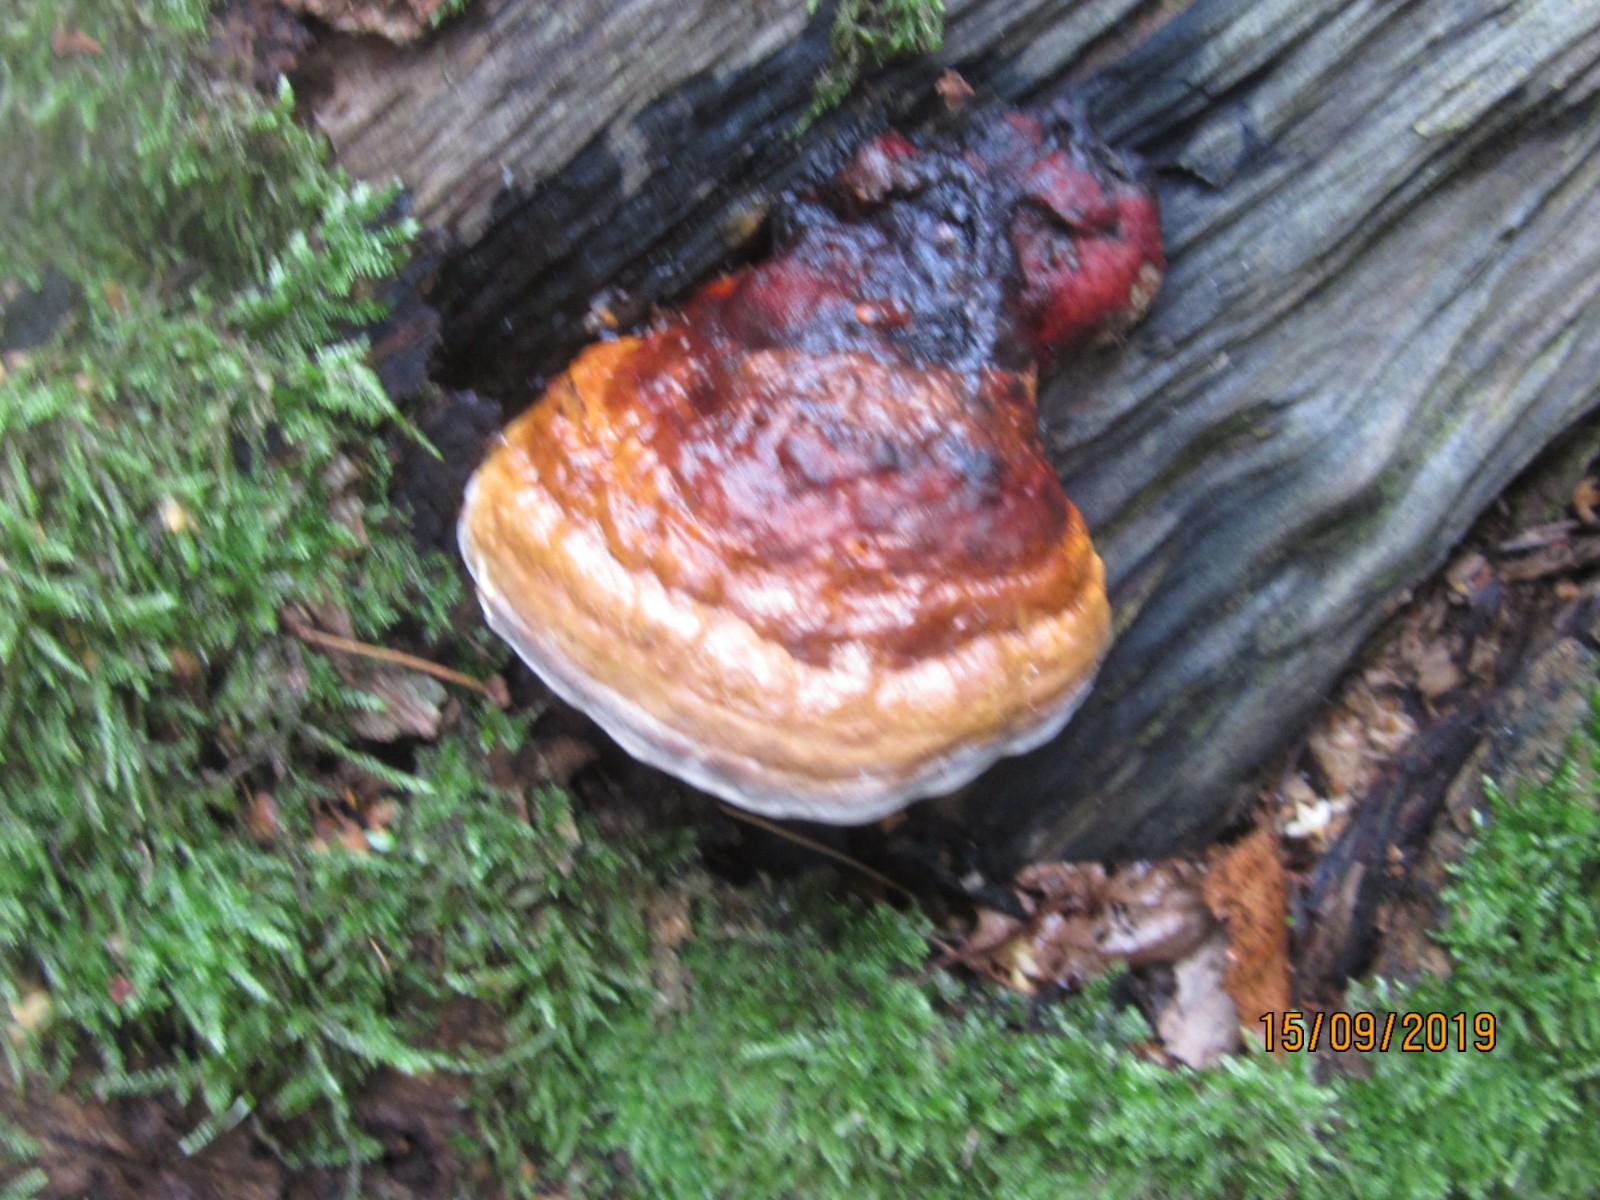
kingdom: Fungi
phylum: Basidiomycota
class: Agaricomycetes
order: Polyporales
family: Fomitopsidaceae
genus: Fomitopsis
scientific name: Fomitopsis pinicola
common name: randbæltet hovporesvamp
